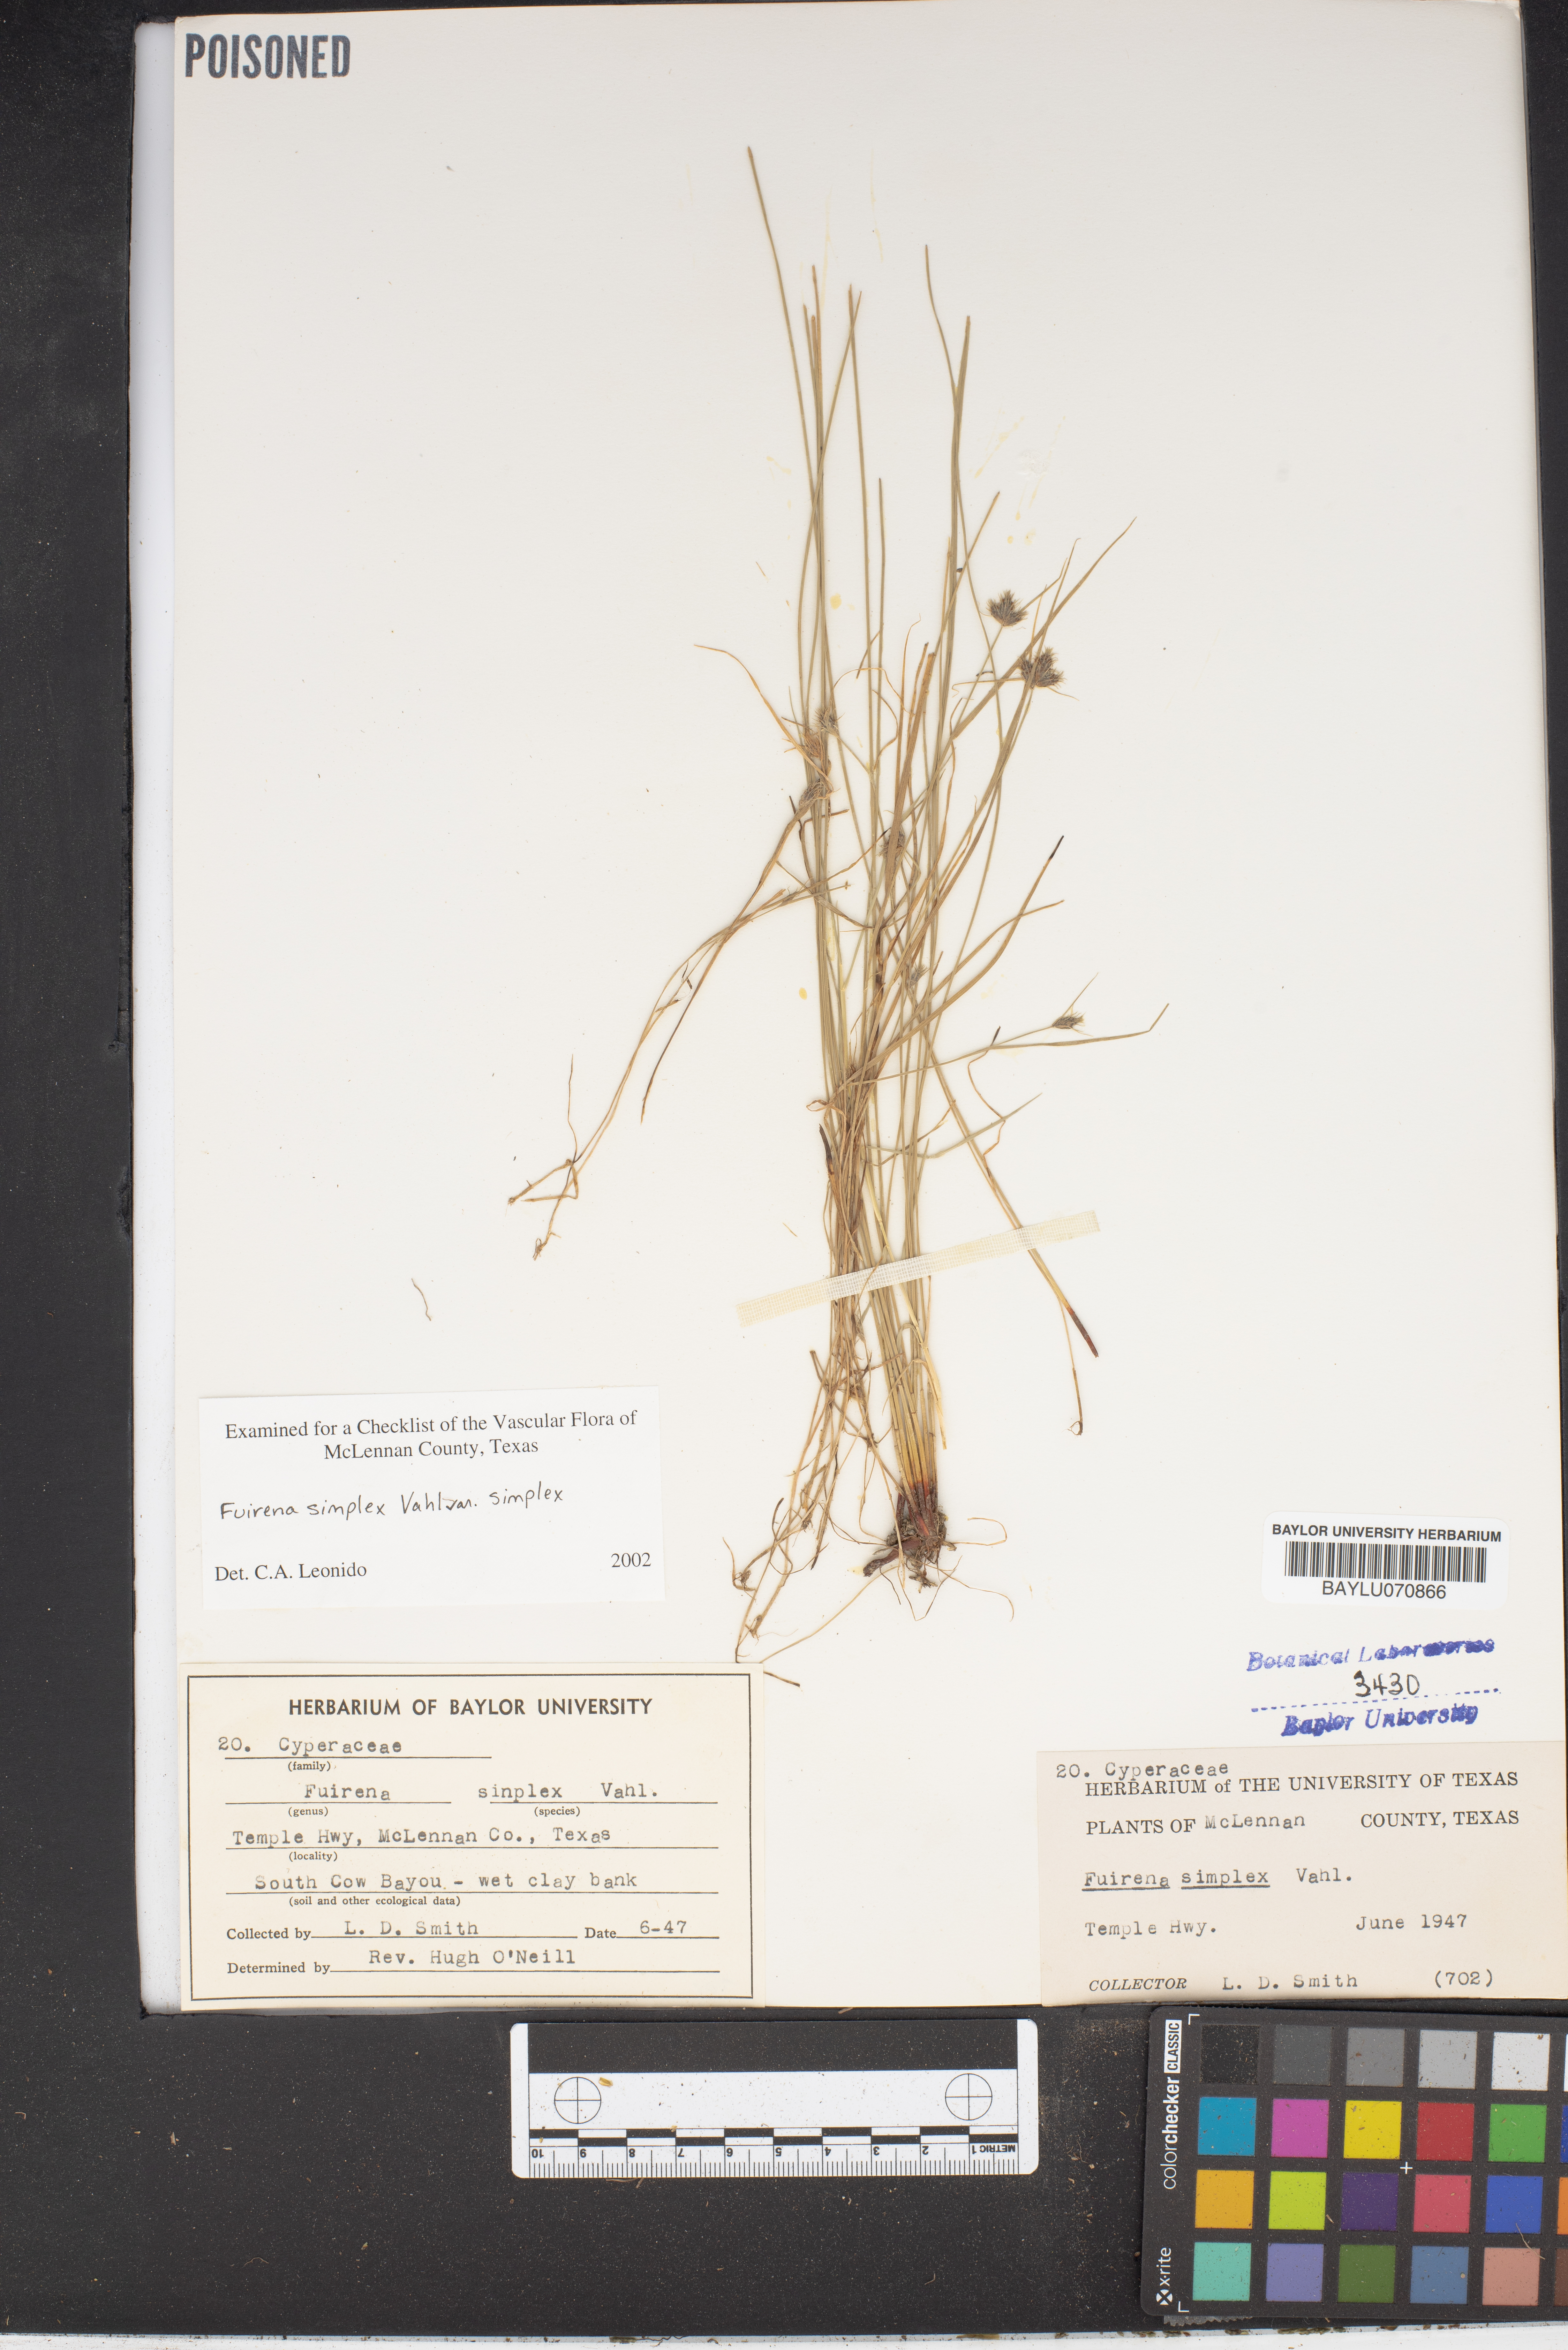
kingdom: Plantae
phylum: Tracheophyta
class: Liliopsida
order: Poales
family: Cyperaceae
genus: Fuirena
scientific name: Fuirena simplex
